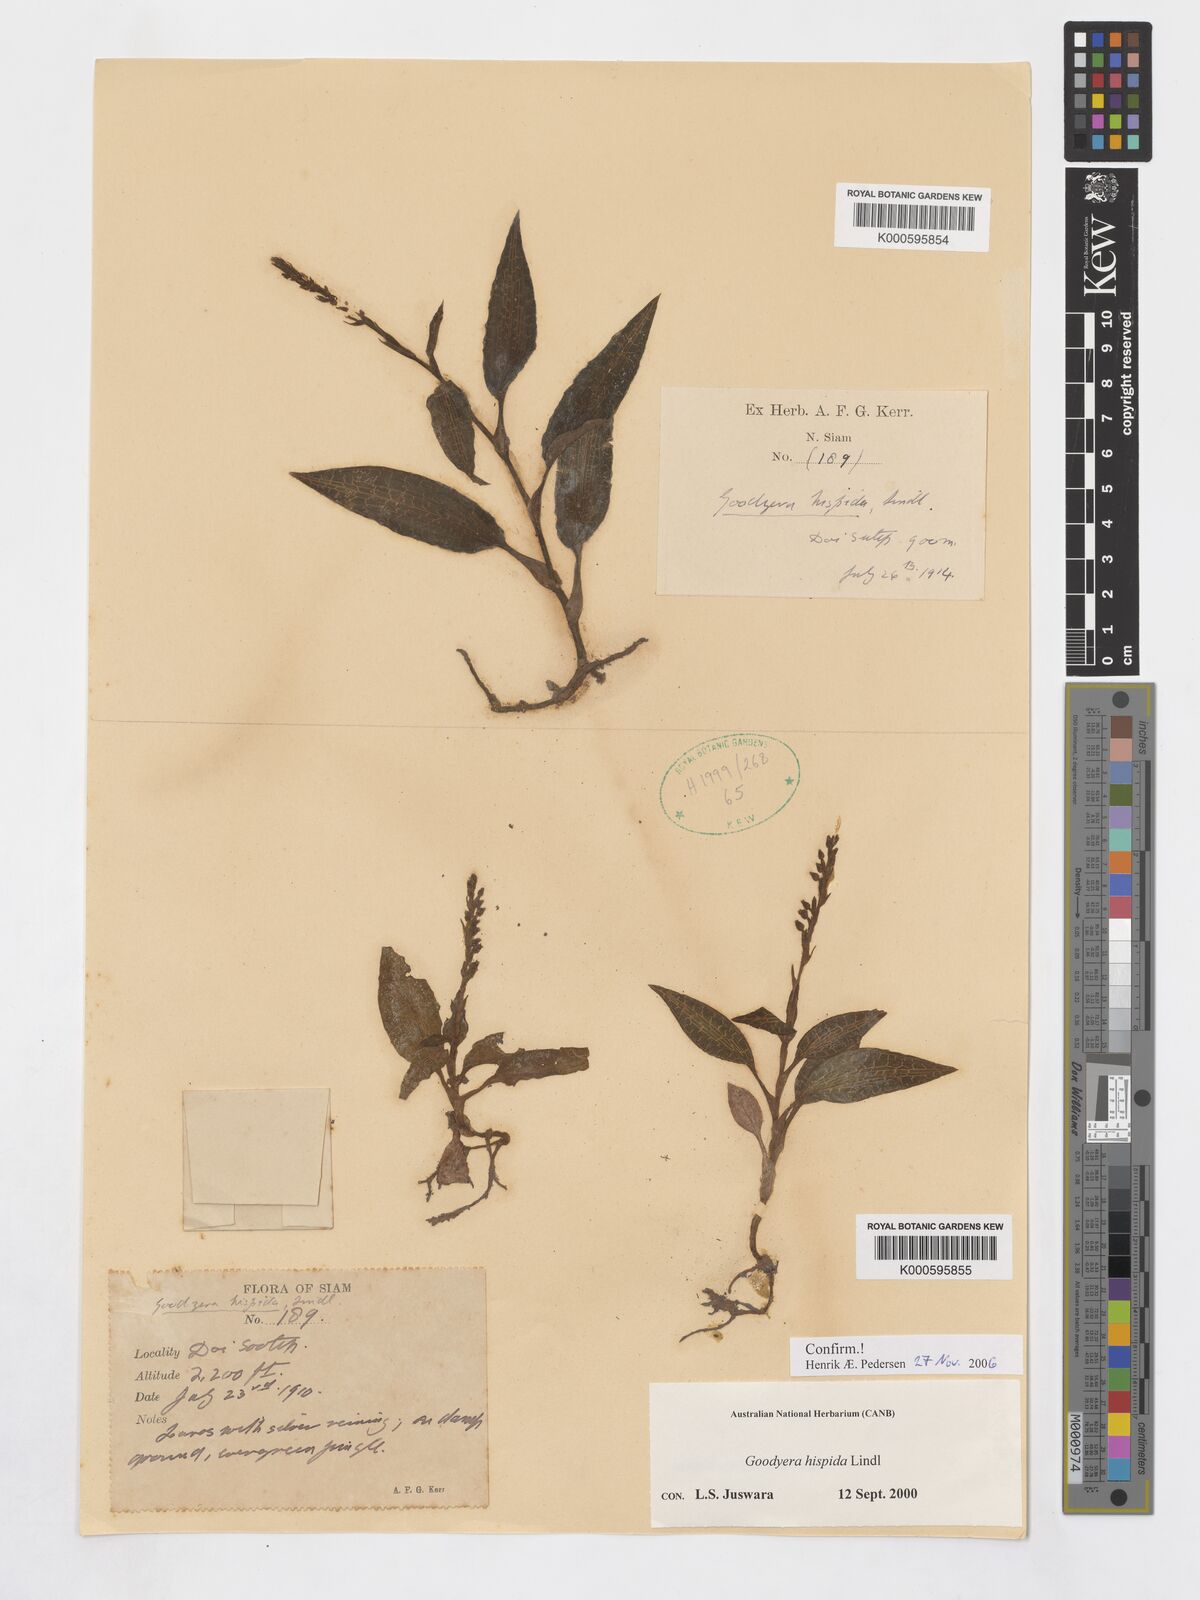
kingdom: Plantae
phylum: Tracheophyta
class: Liliopsida
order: Asparagales
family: Orchidaceae
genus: Goodyera
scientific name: Goodyera hispida
